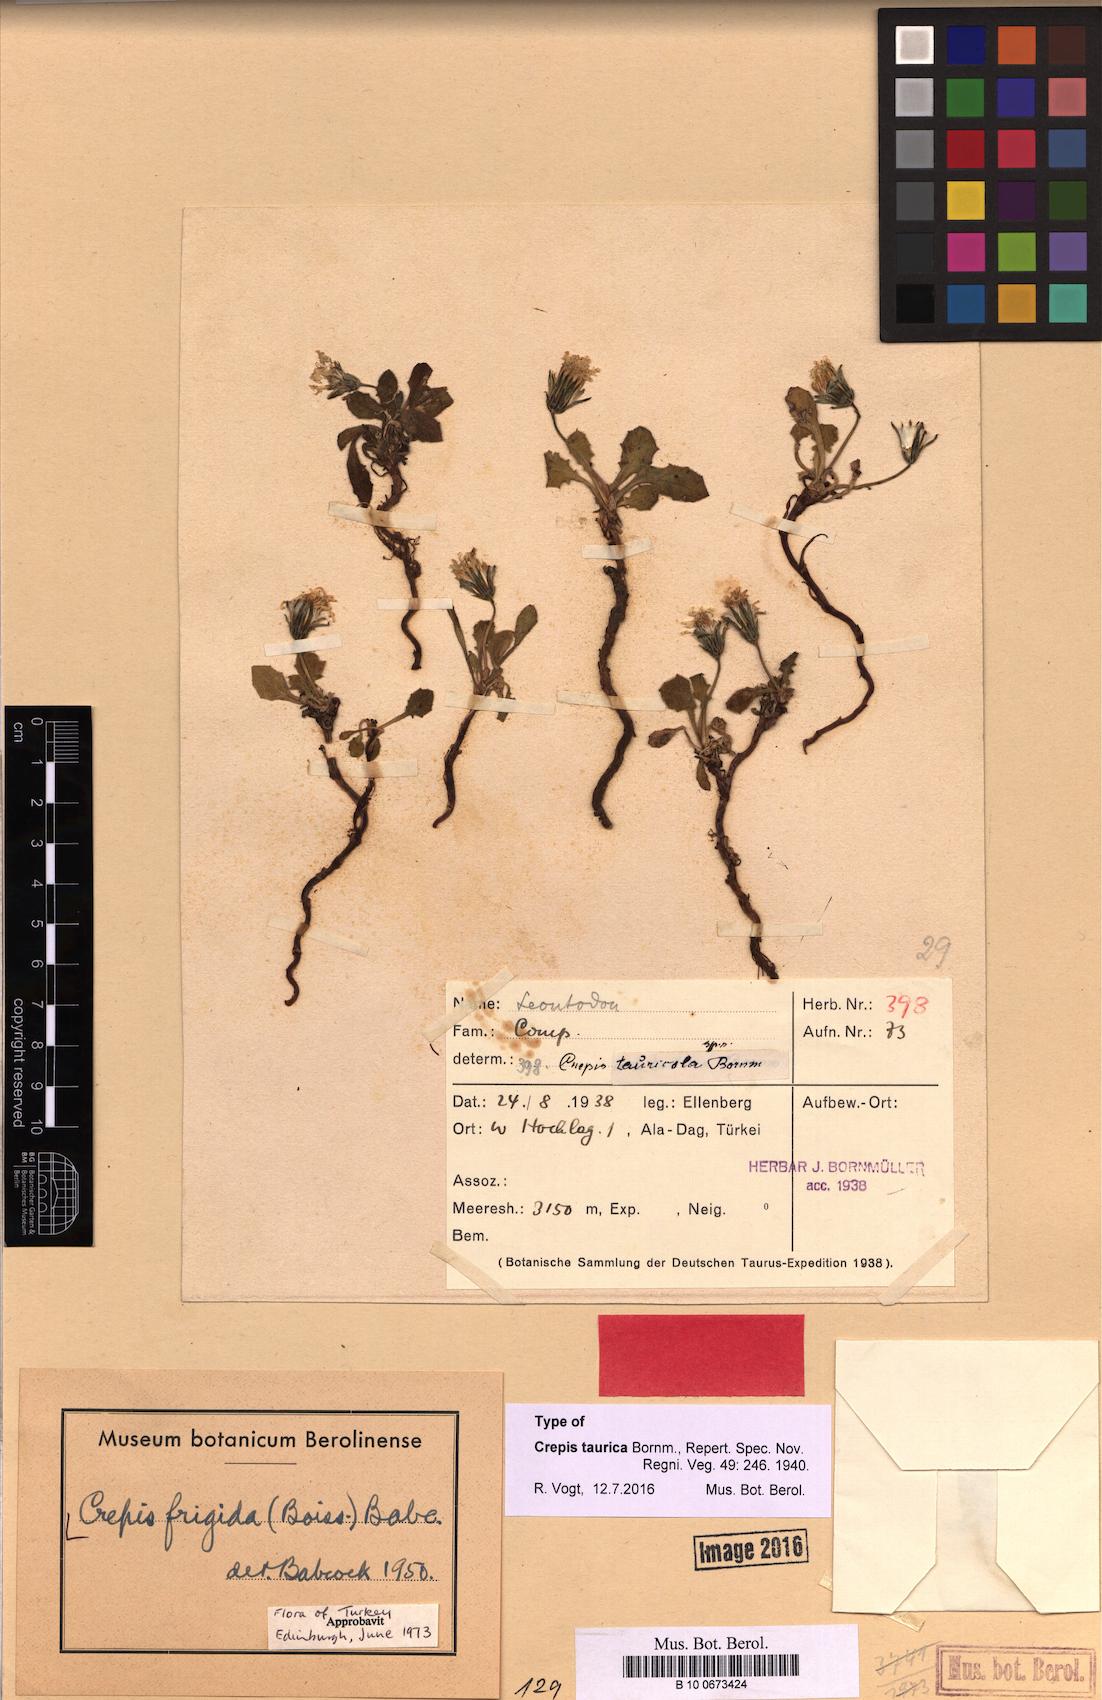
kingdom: Plantae
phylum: Tracheophyta
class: Magnoliopsida
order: Asterales
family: Asteraceae
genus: Crepis
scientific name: Crepis frigida
